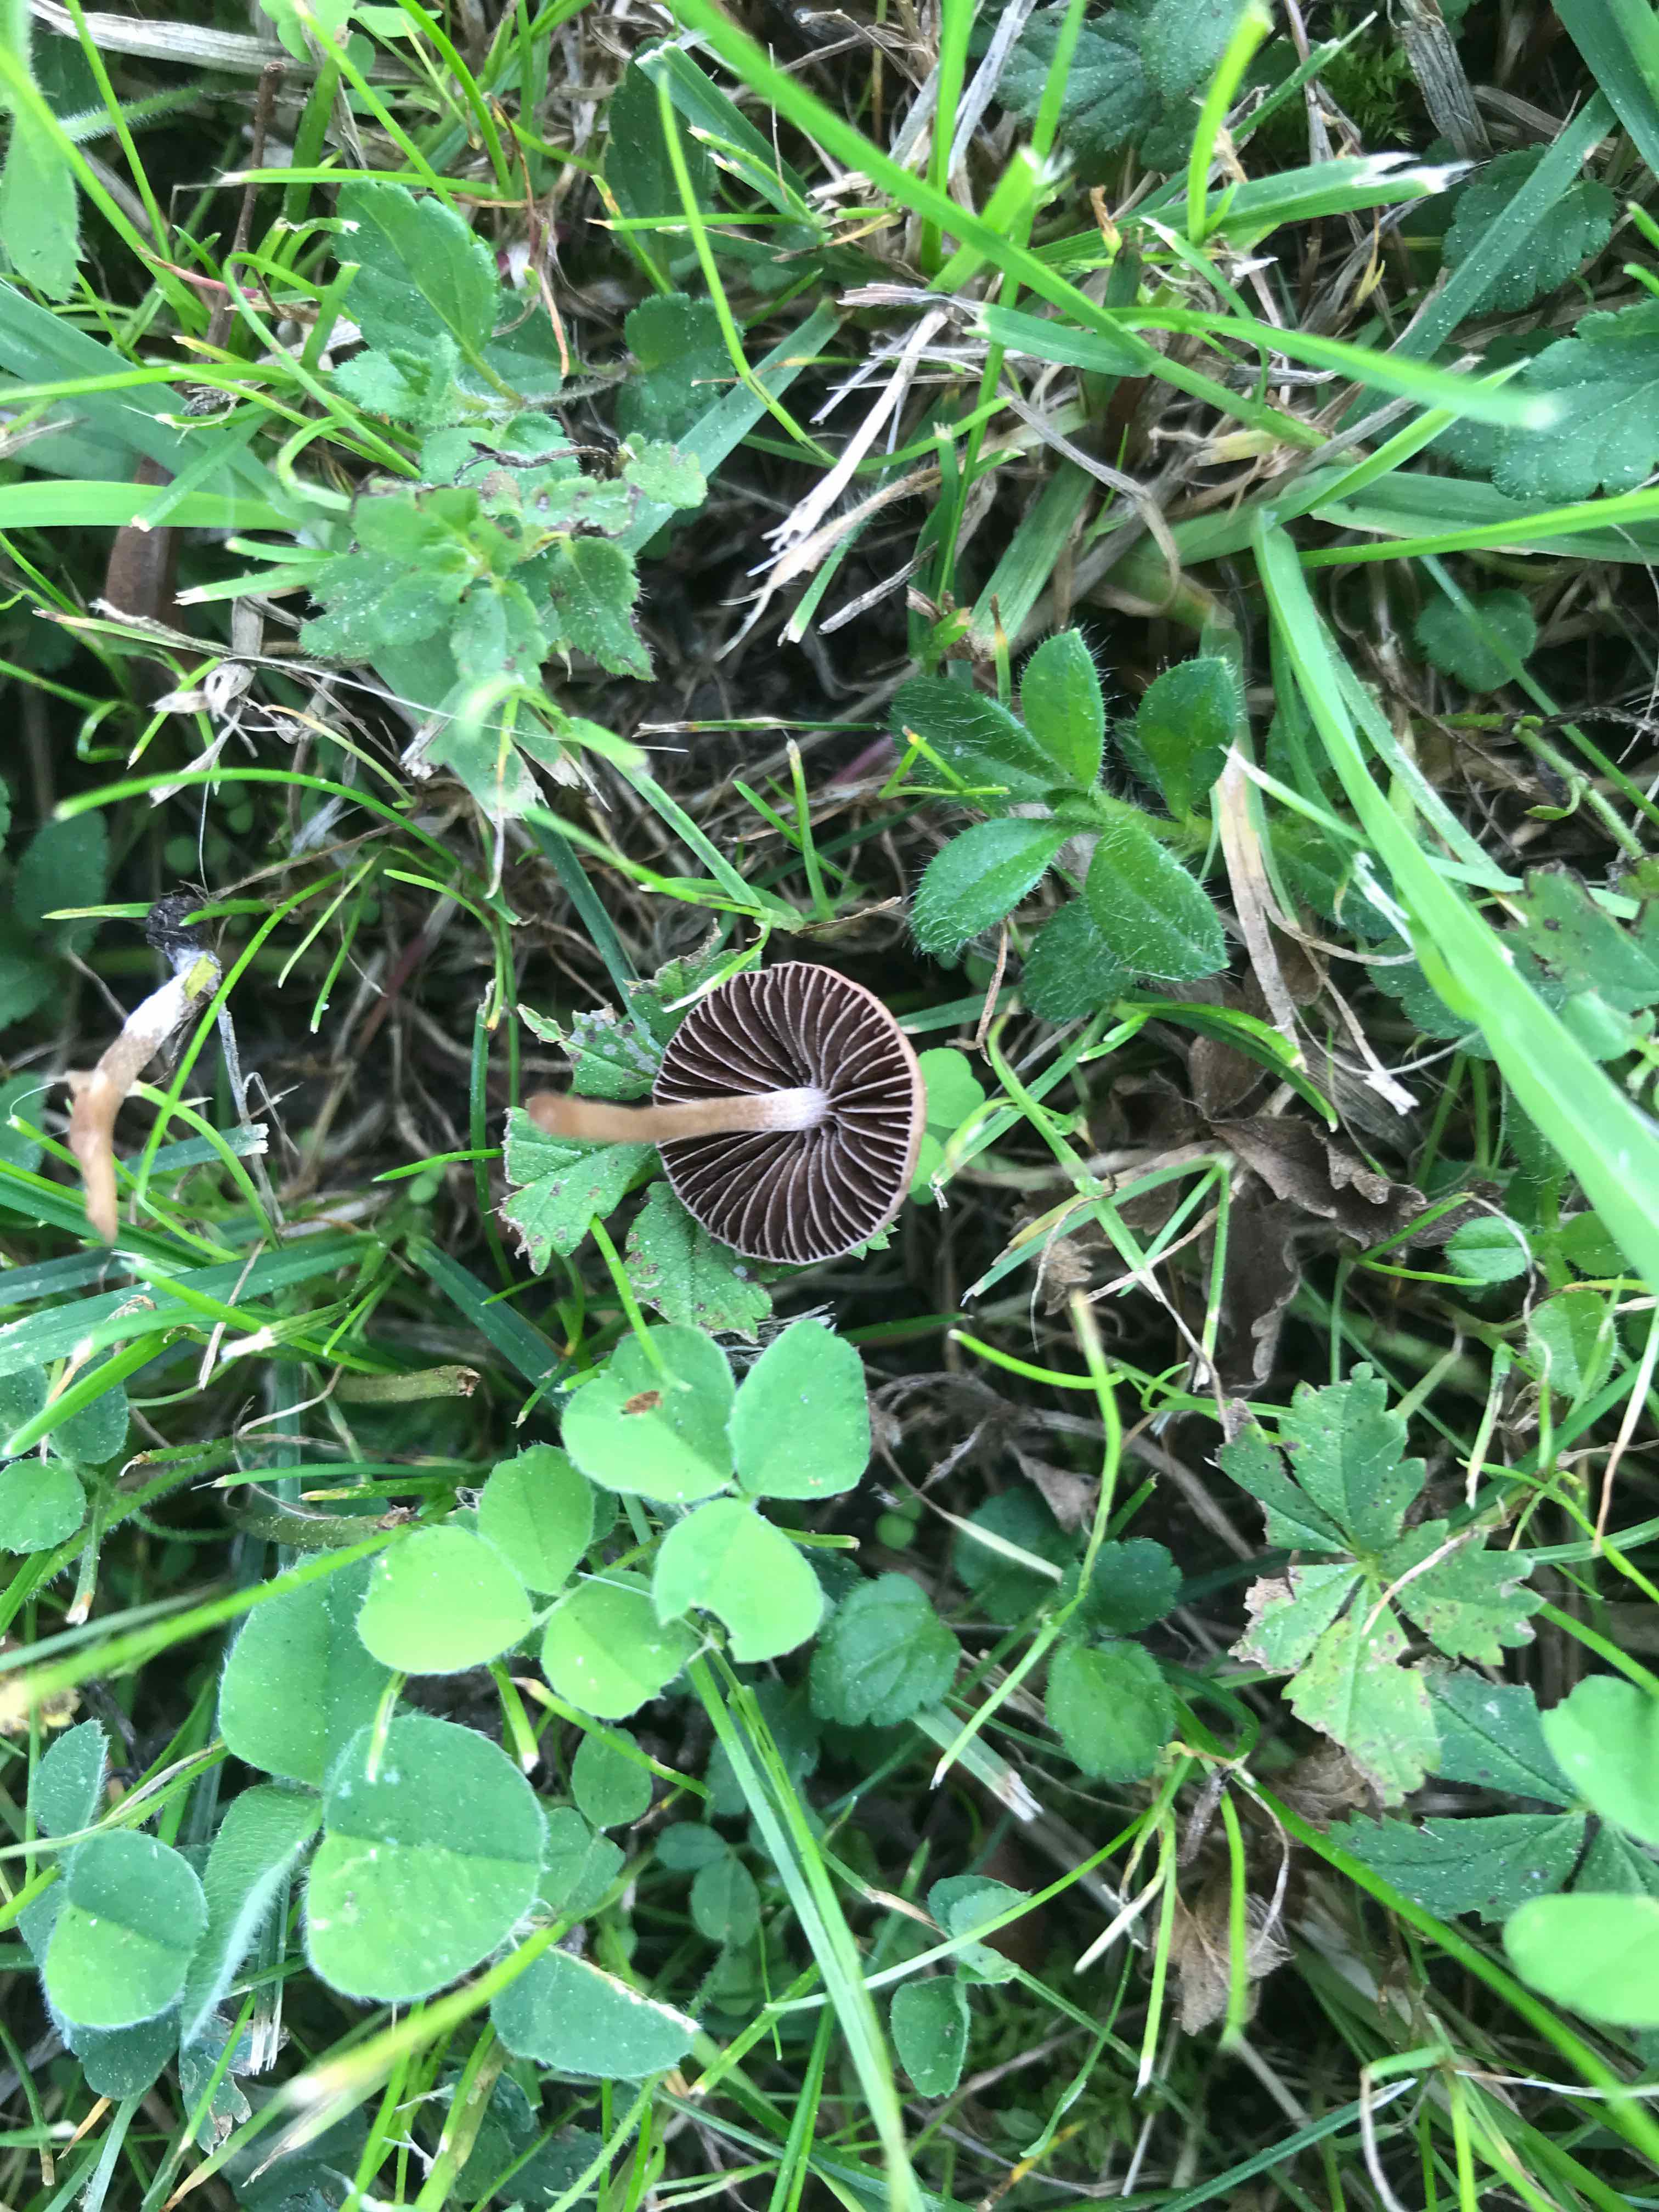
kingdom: Fungi
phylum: Basidiomycota
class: Agaricomycetes
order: Agaricales
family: Bolbitiaceae
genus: Panaeolina
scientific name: Panaeolina foenisecii
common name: høslætsvamp
